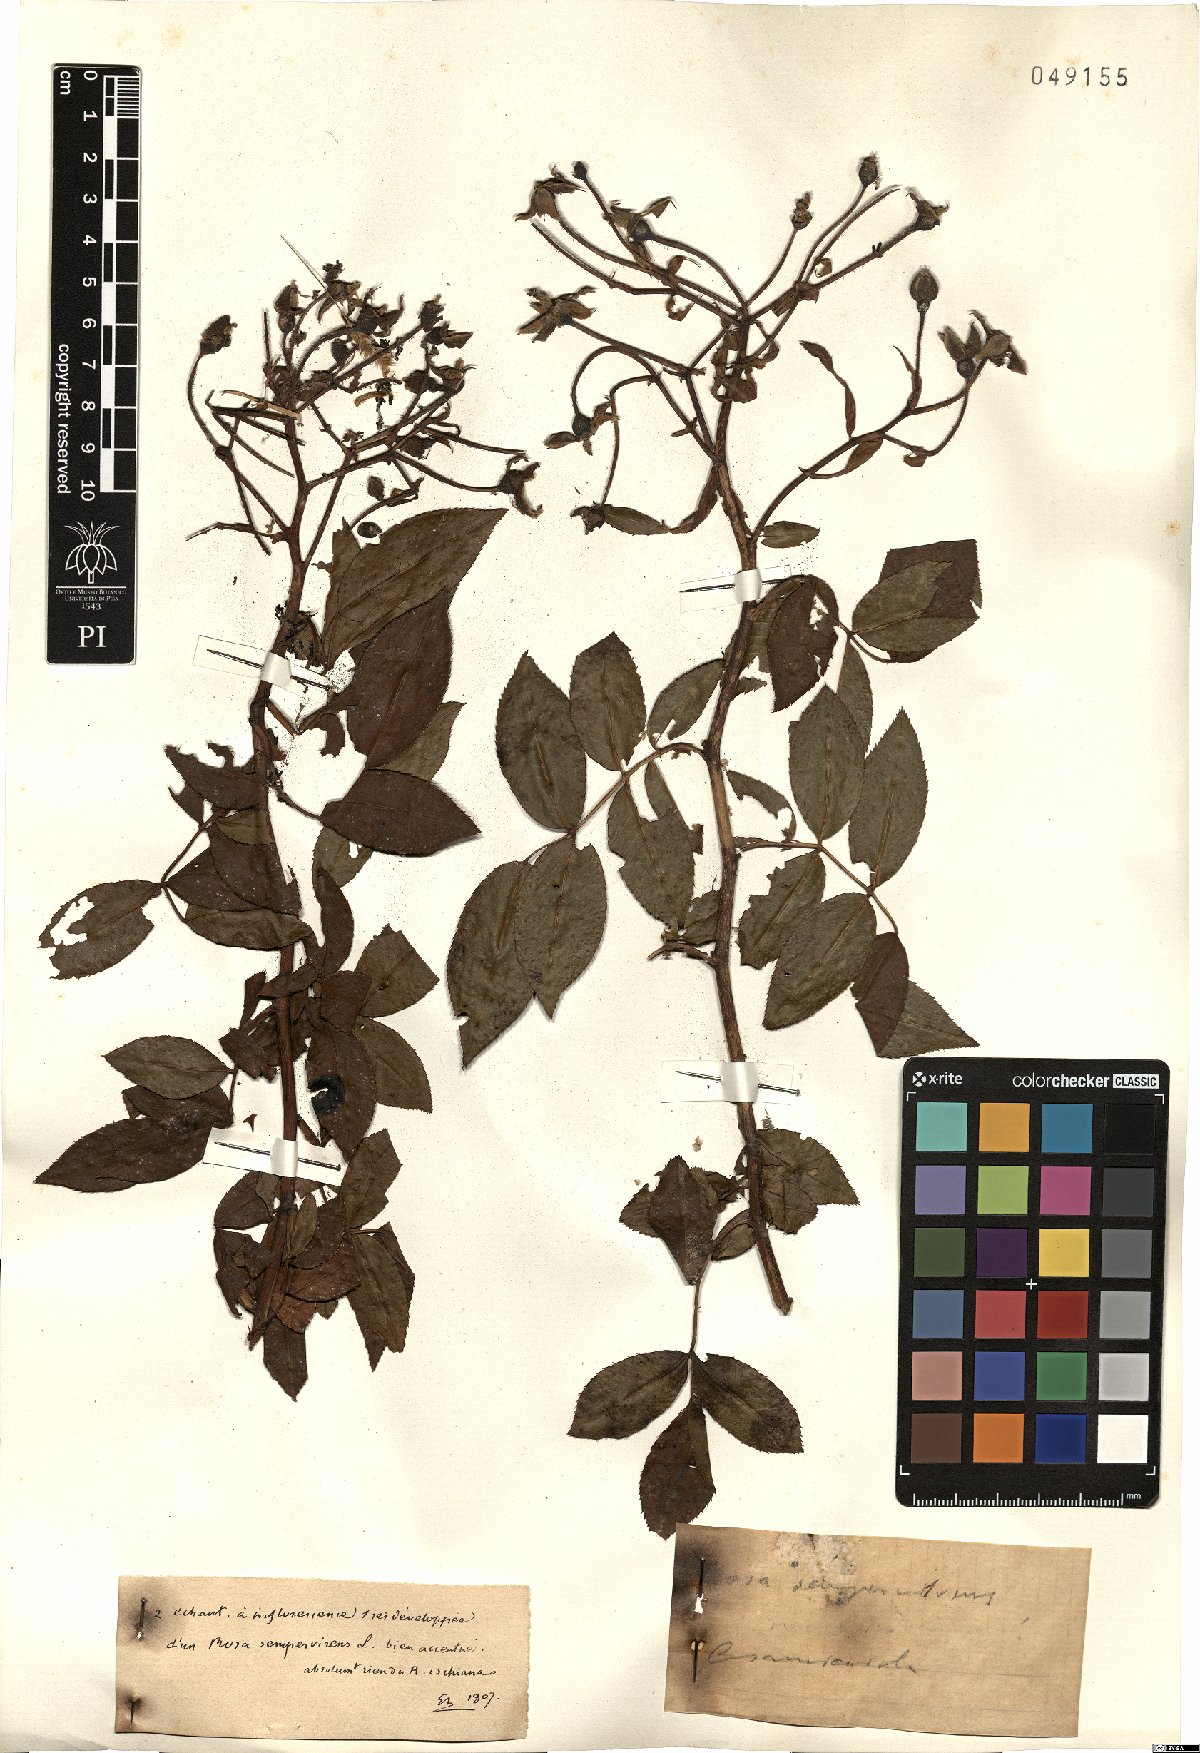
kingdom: Plantae
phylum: Tracheophyta
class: Magnoliopsida
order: Rosales
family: Rosaceae
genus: Rosa
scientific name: Rosa sempervirens
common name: Evergreen rose
